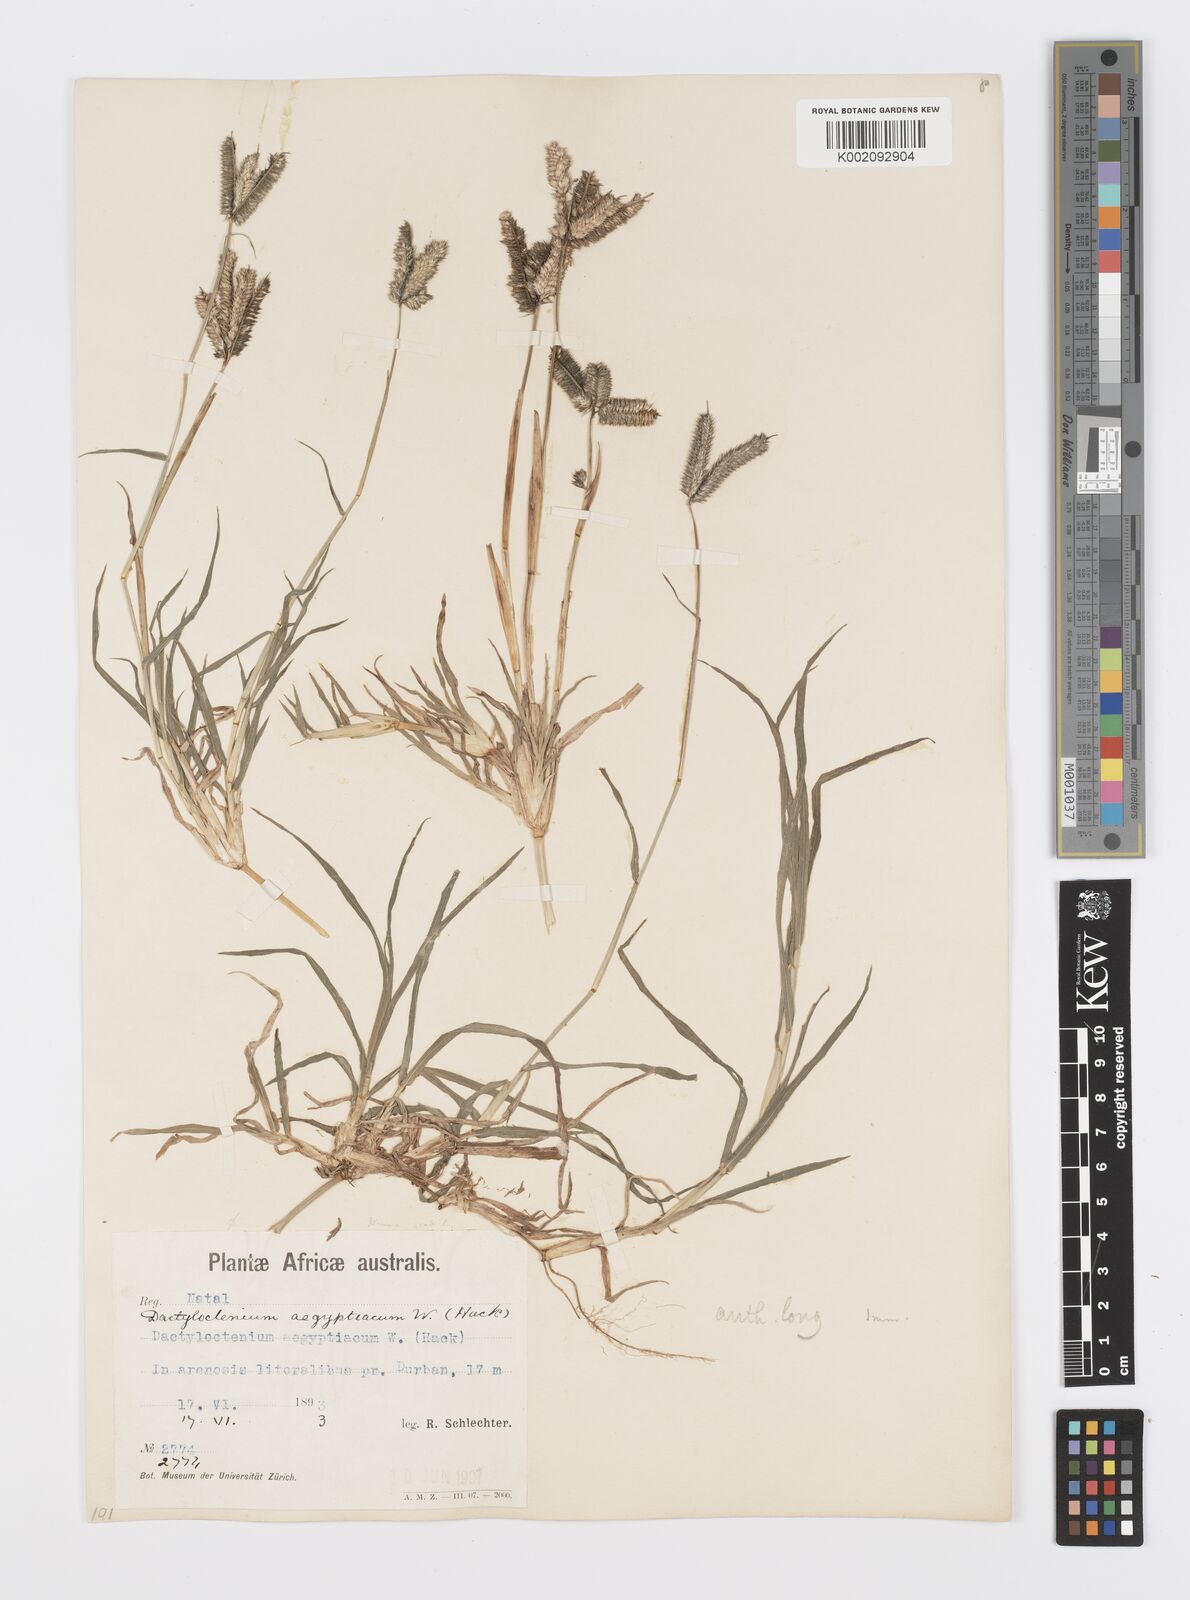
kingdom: Plantae
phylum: Tracheophyta
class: Liliopsida
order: Poales
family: Poaceae
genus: Dactyloctenium
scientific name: Dactyloctenium australe
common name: Durban grass
